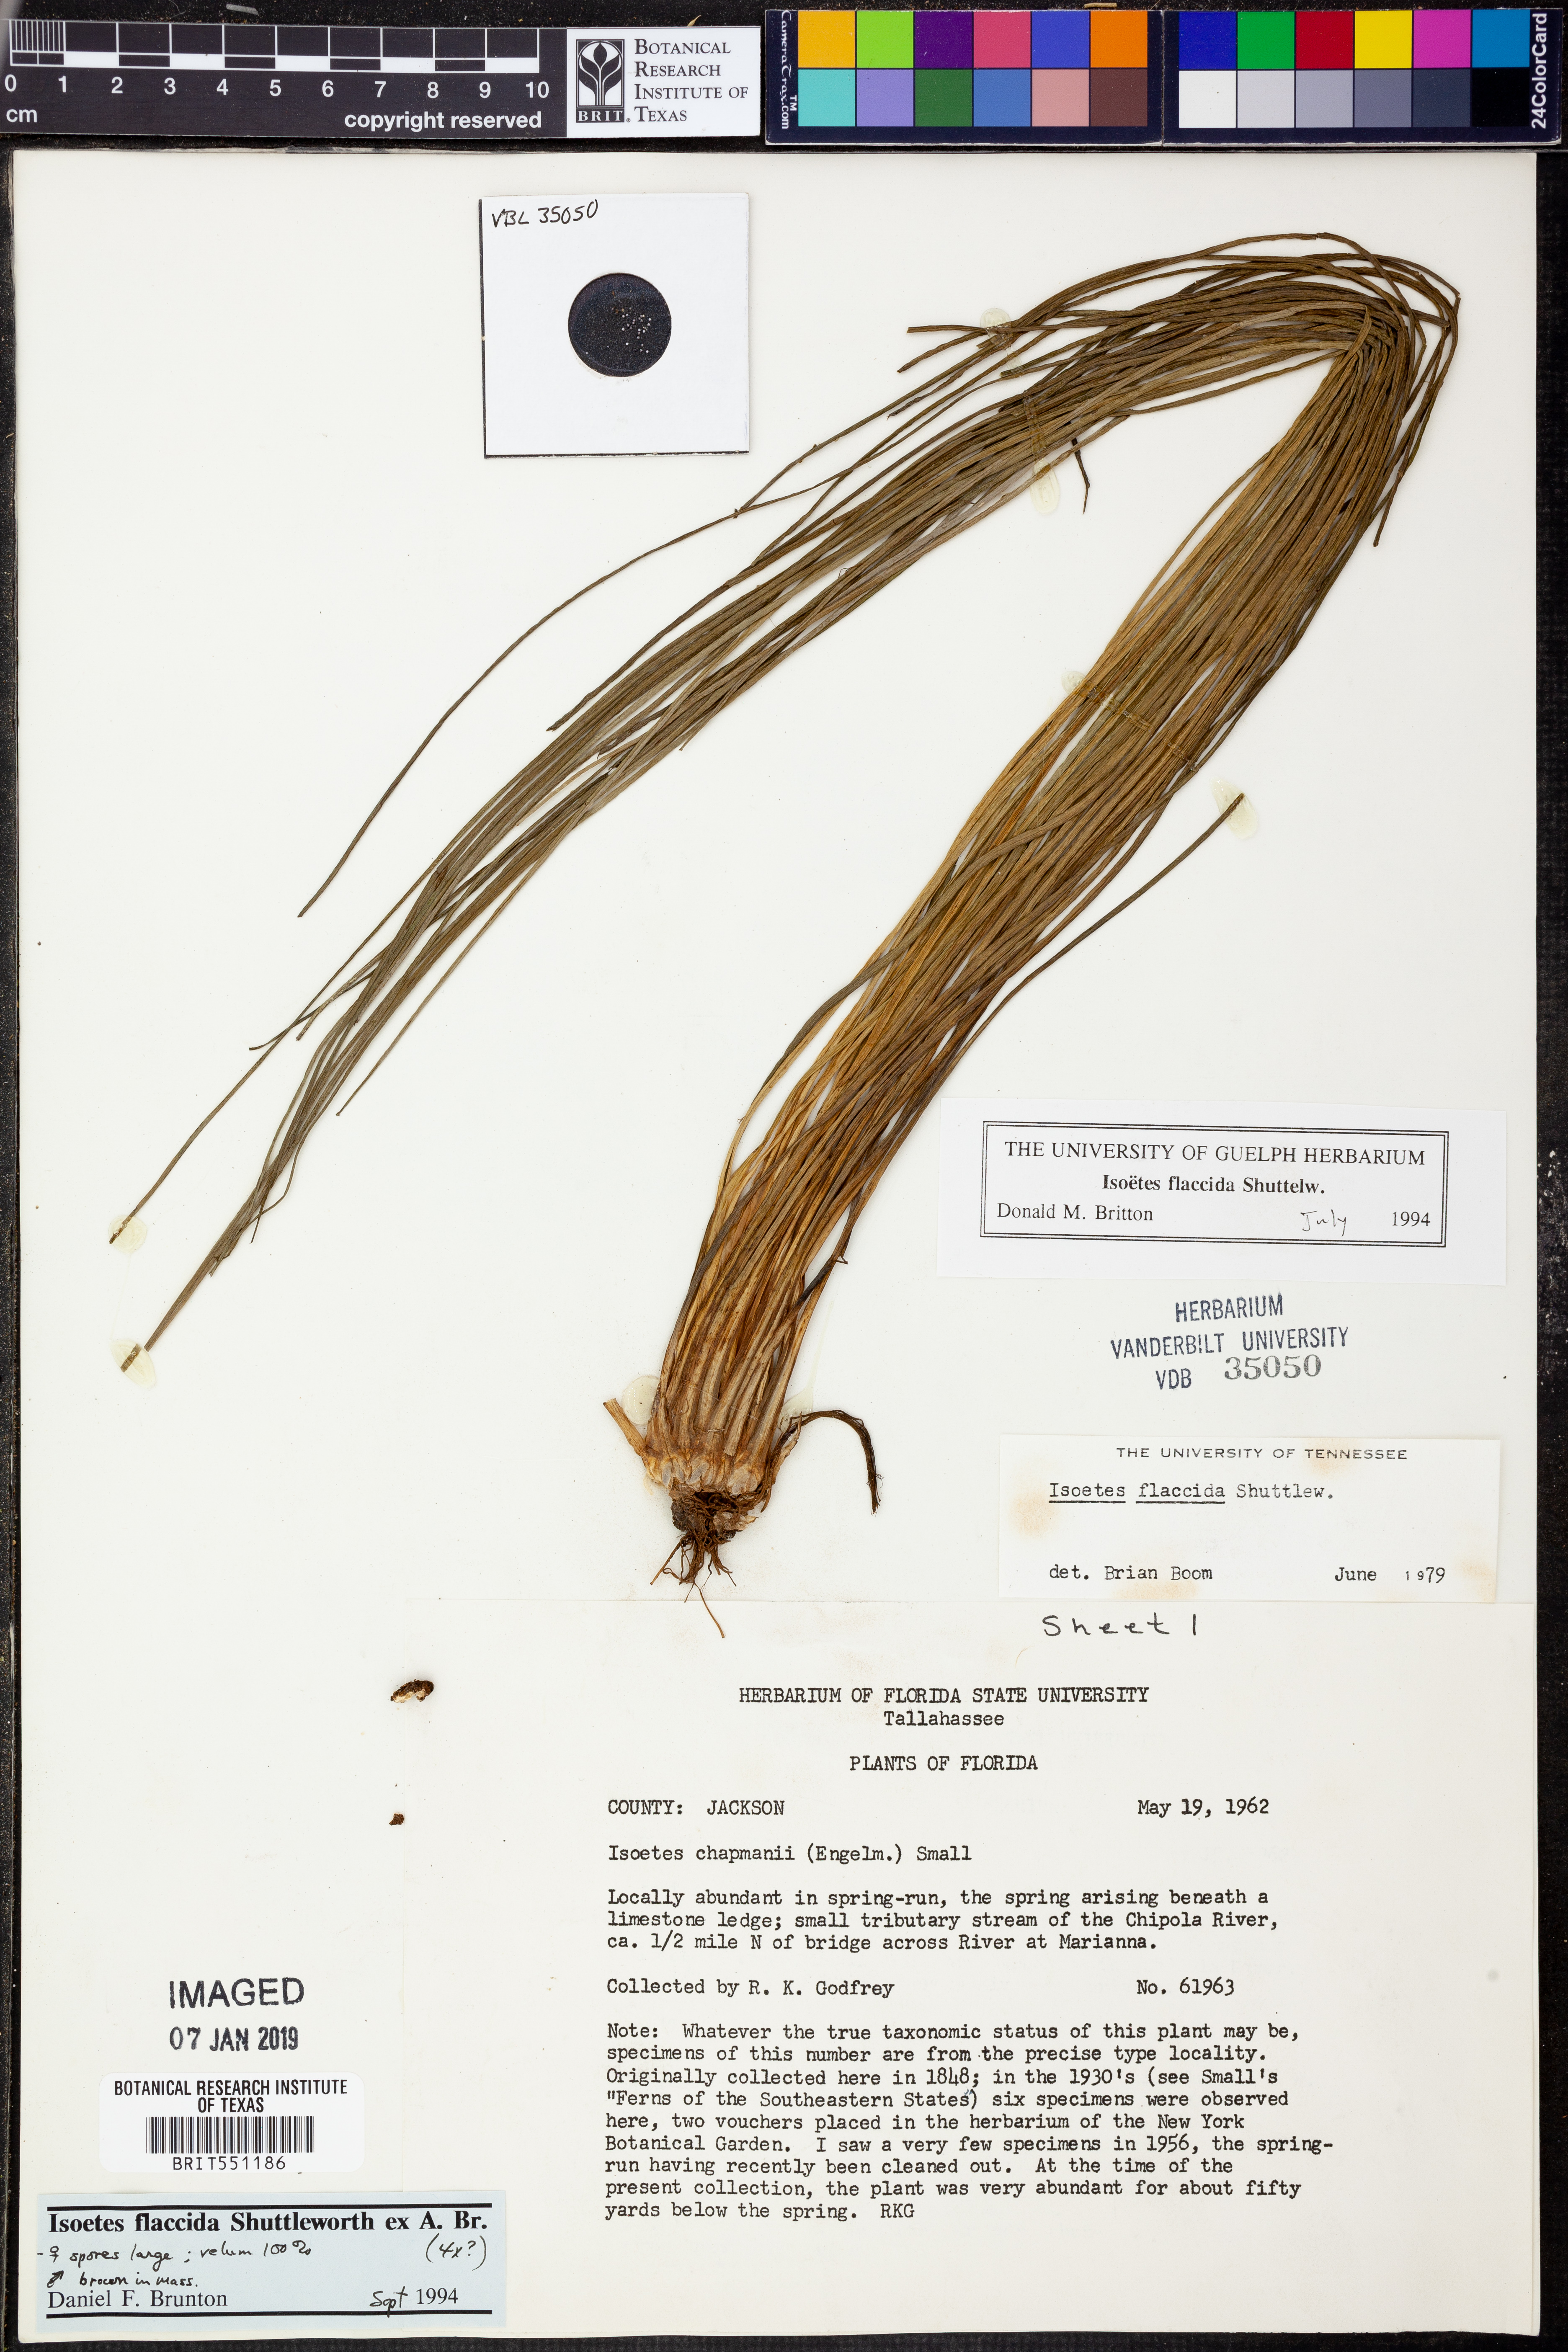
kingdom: Plantae
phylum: Tracheophyta
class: Lycopodiopsida
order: Isoetales
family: Isoetaceae
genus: Isoetes
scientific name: Isoetes flaccida
